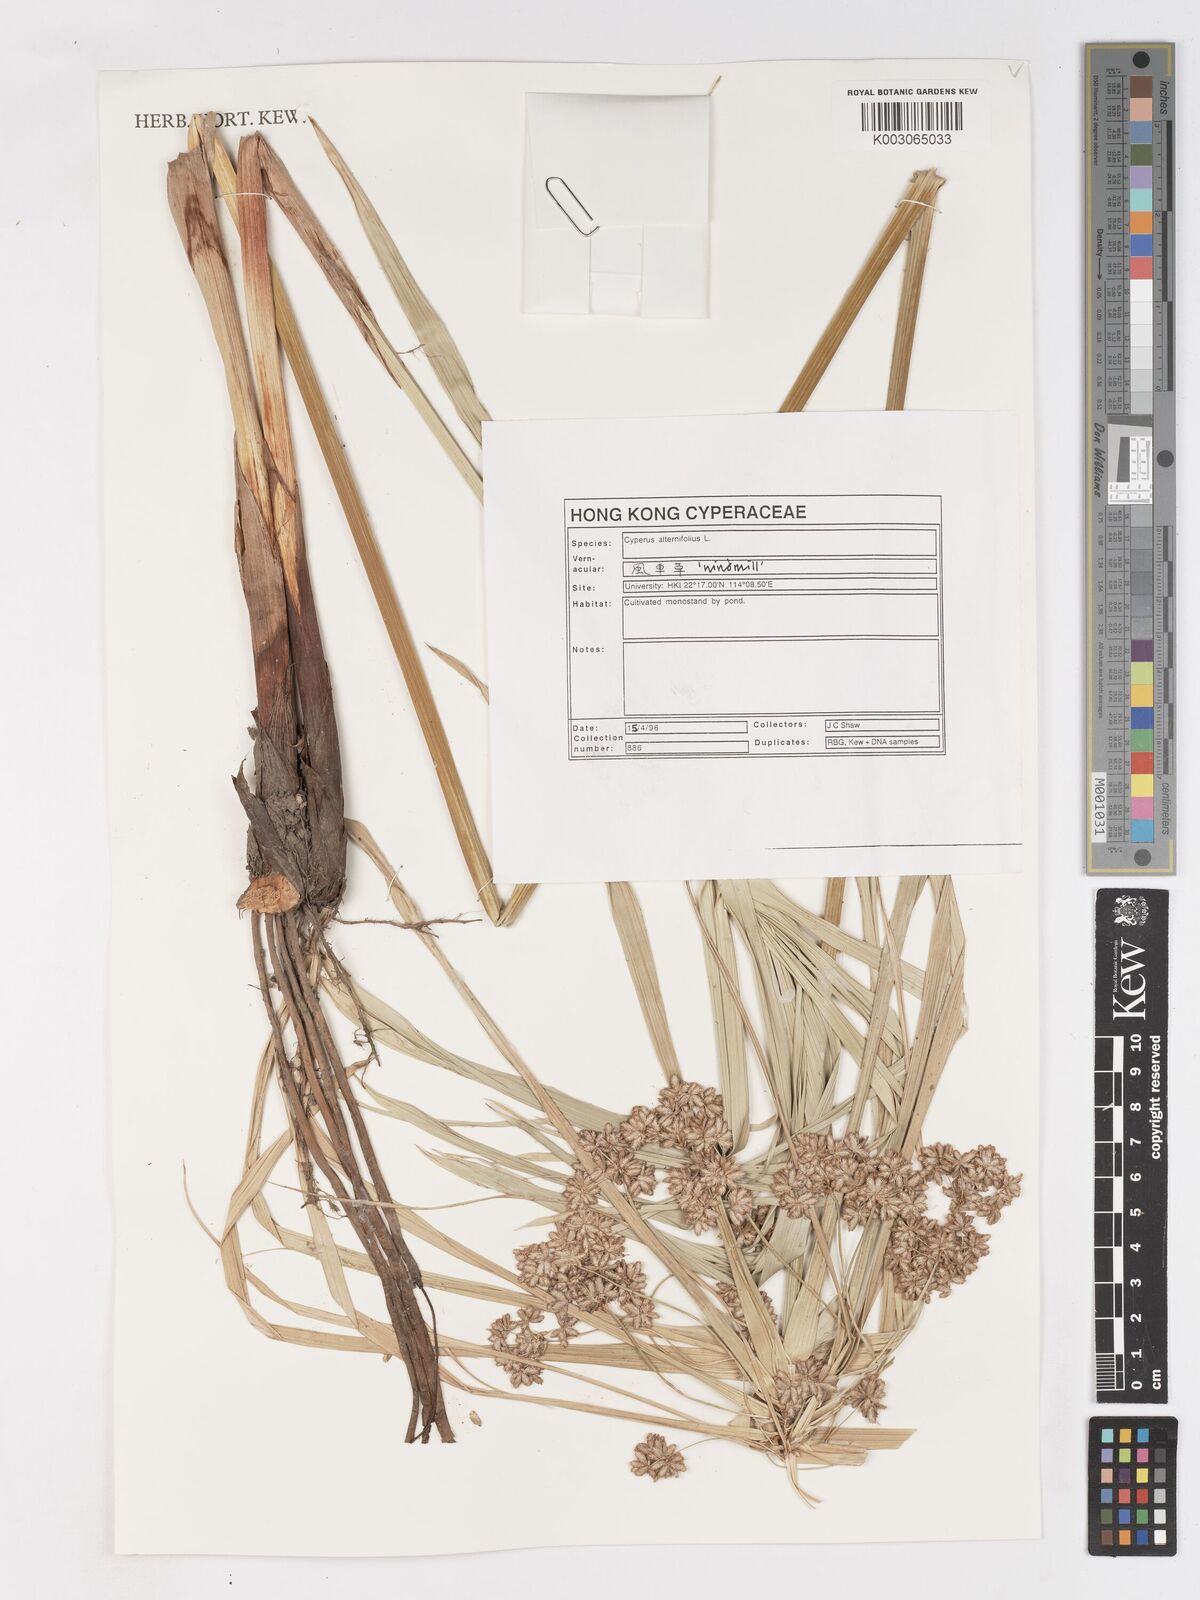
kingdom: Plantae
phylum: Tracheophyta
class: Liliopsida
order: Poales
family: Cyperaceae
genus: Cyperus
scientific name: Cyperus alternifolius
